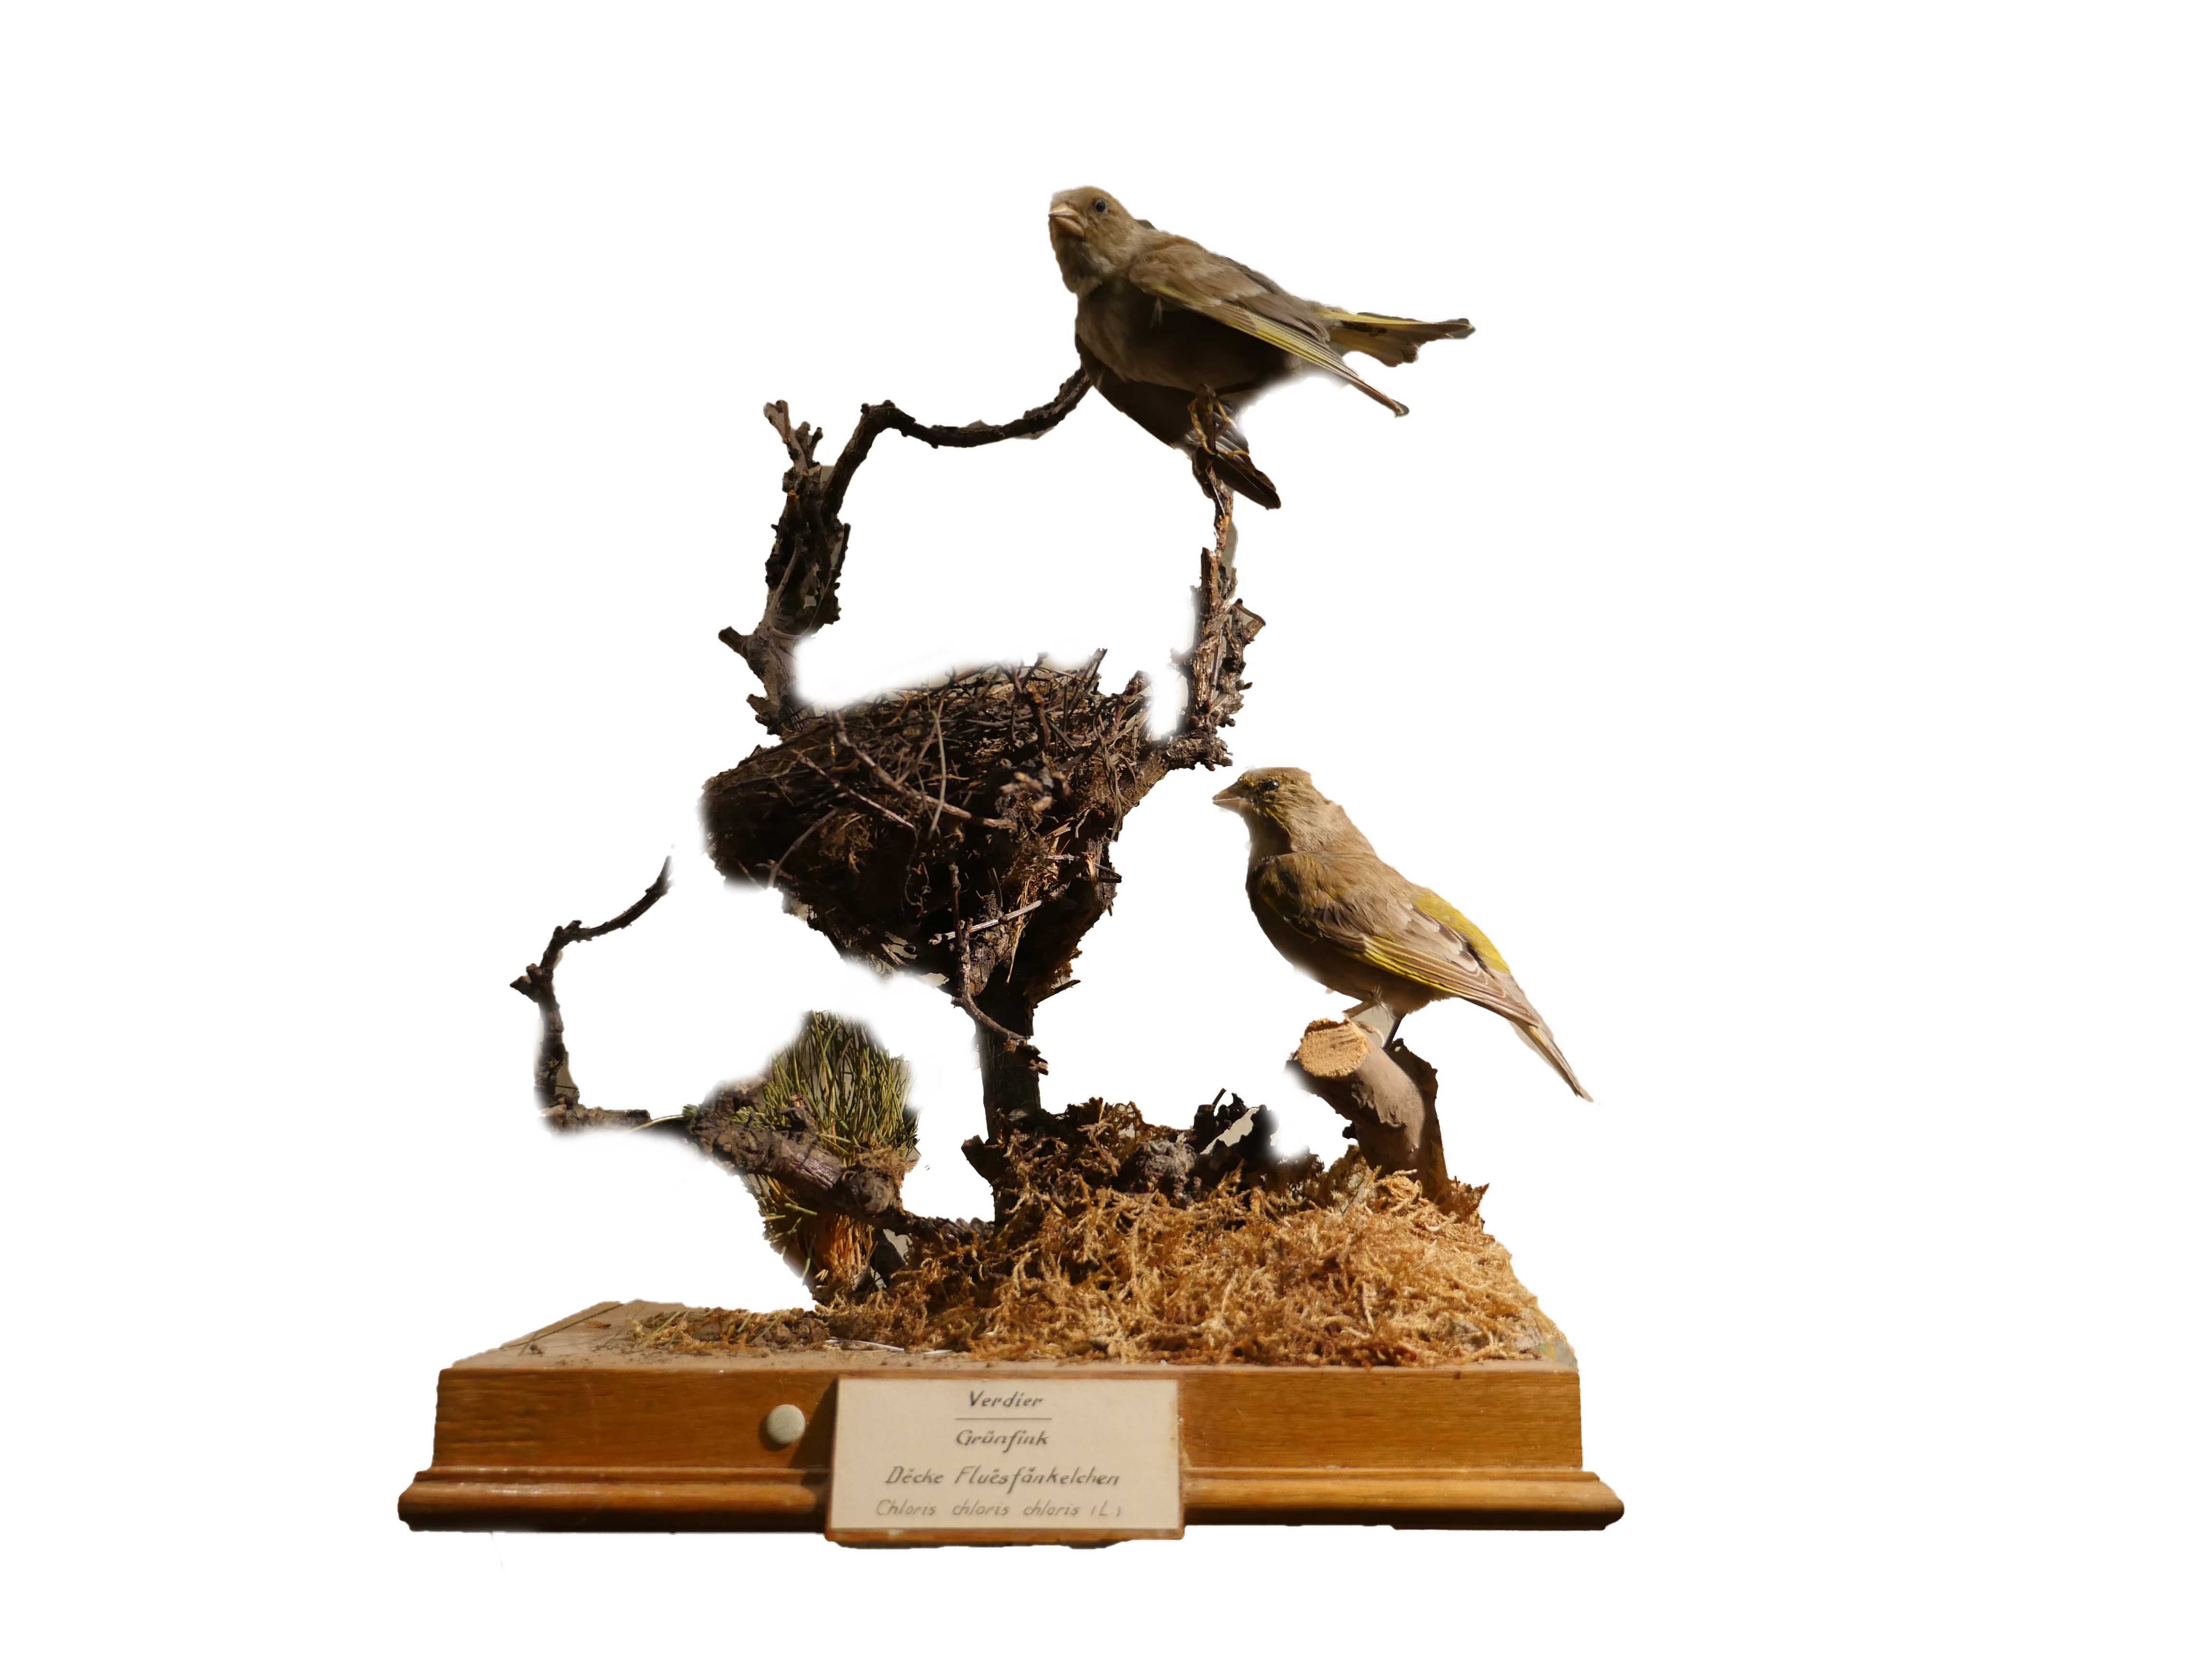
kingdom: Plantae
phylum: Tracheophyta
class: Liliopsida
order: Poales
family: Poaceae
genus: Chloris
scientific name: Chloris chloris
